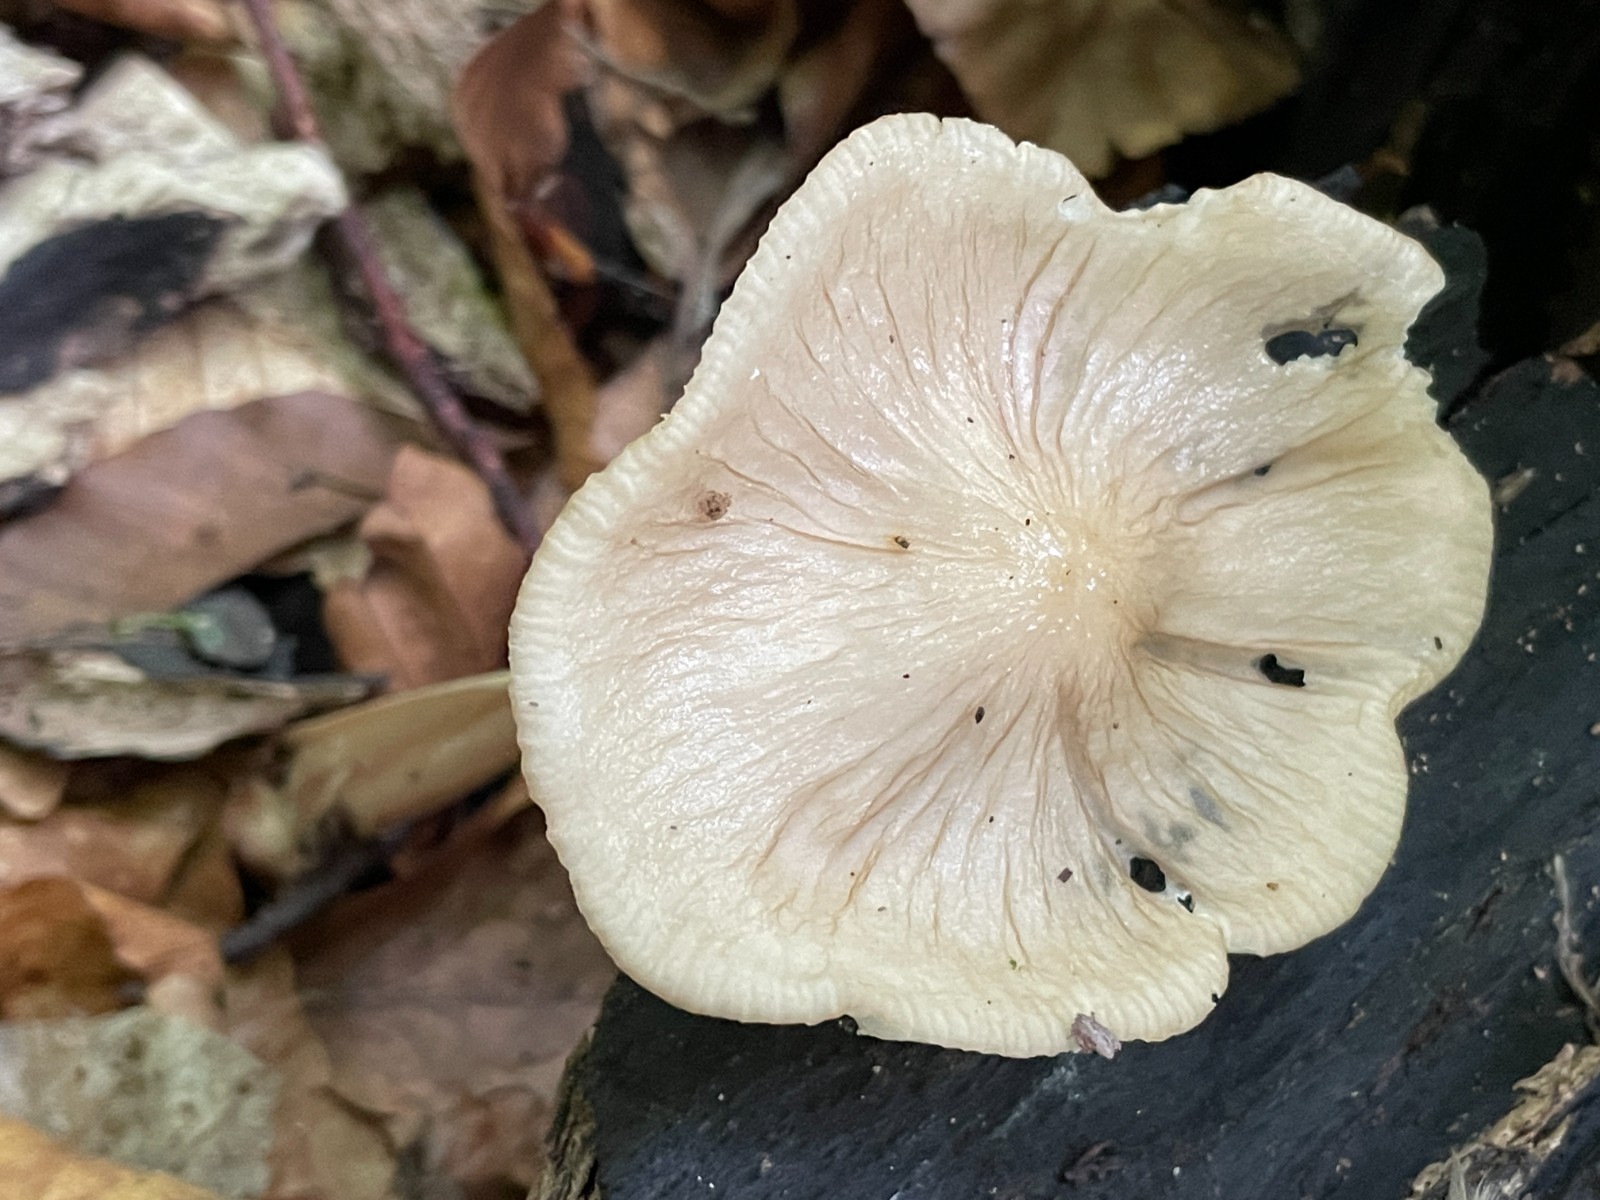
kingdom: Fungi
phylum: Basidiomycota
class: Agaricomycetes
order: Agaricales
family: Physalacriaceae
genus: Hymenopellis
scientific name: Hymenopellis radicata
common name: almindelig pælerodshat
